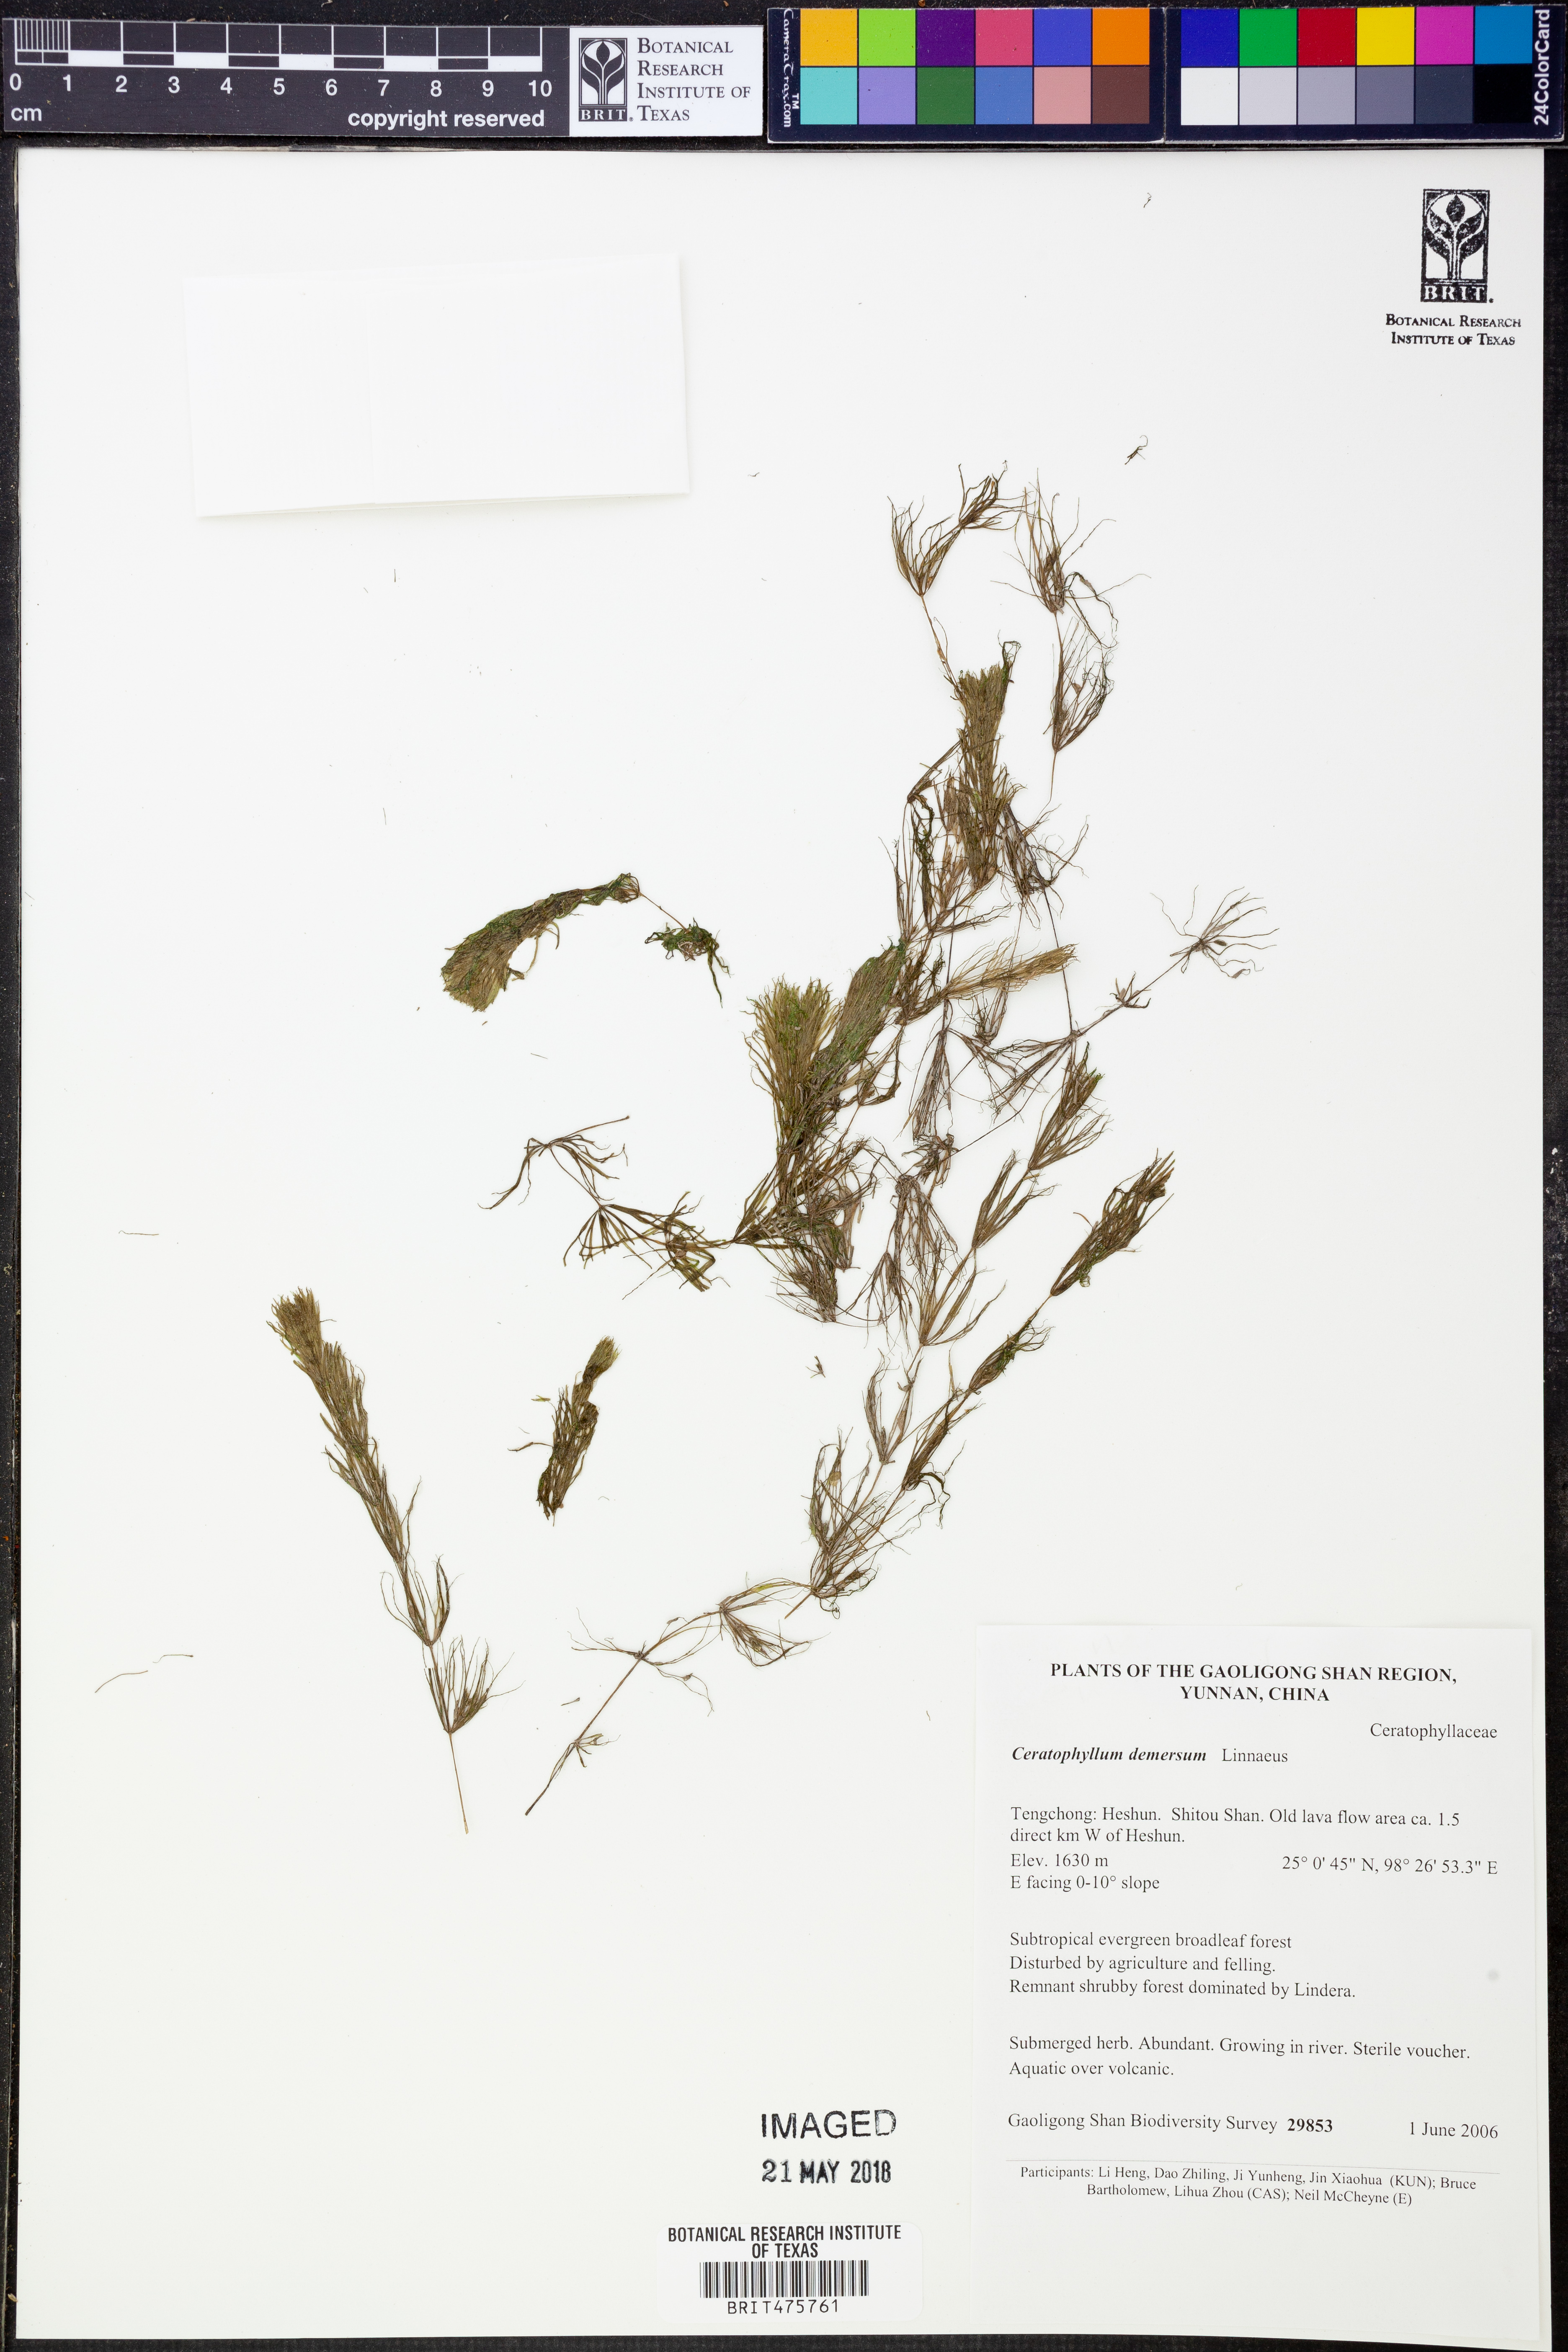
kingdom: Plantae
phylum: Tracheophyta
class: Magnoliopsida
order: Ceratophyllales
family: Ceratophyllaceae
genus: Ceratophyllum
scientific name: Ceratophyllum demersum
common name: Rigid hornwort
